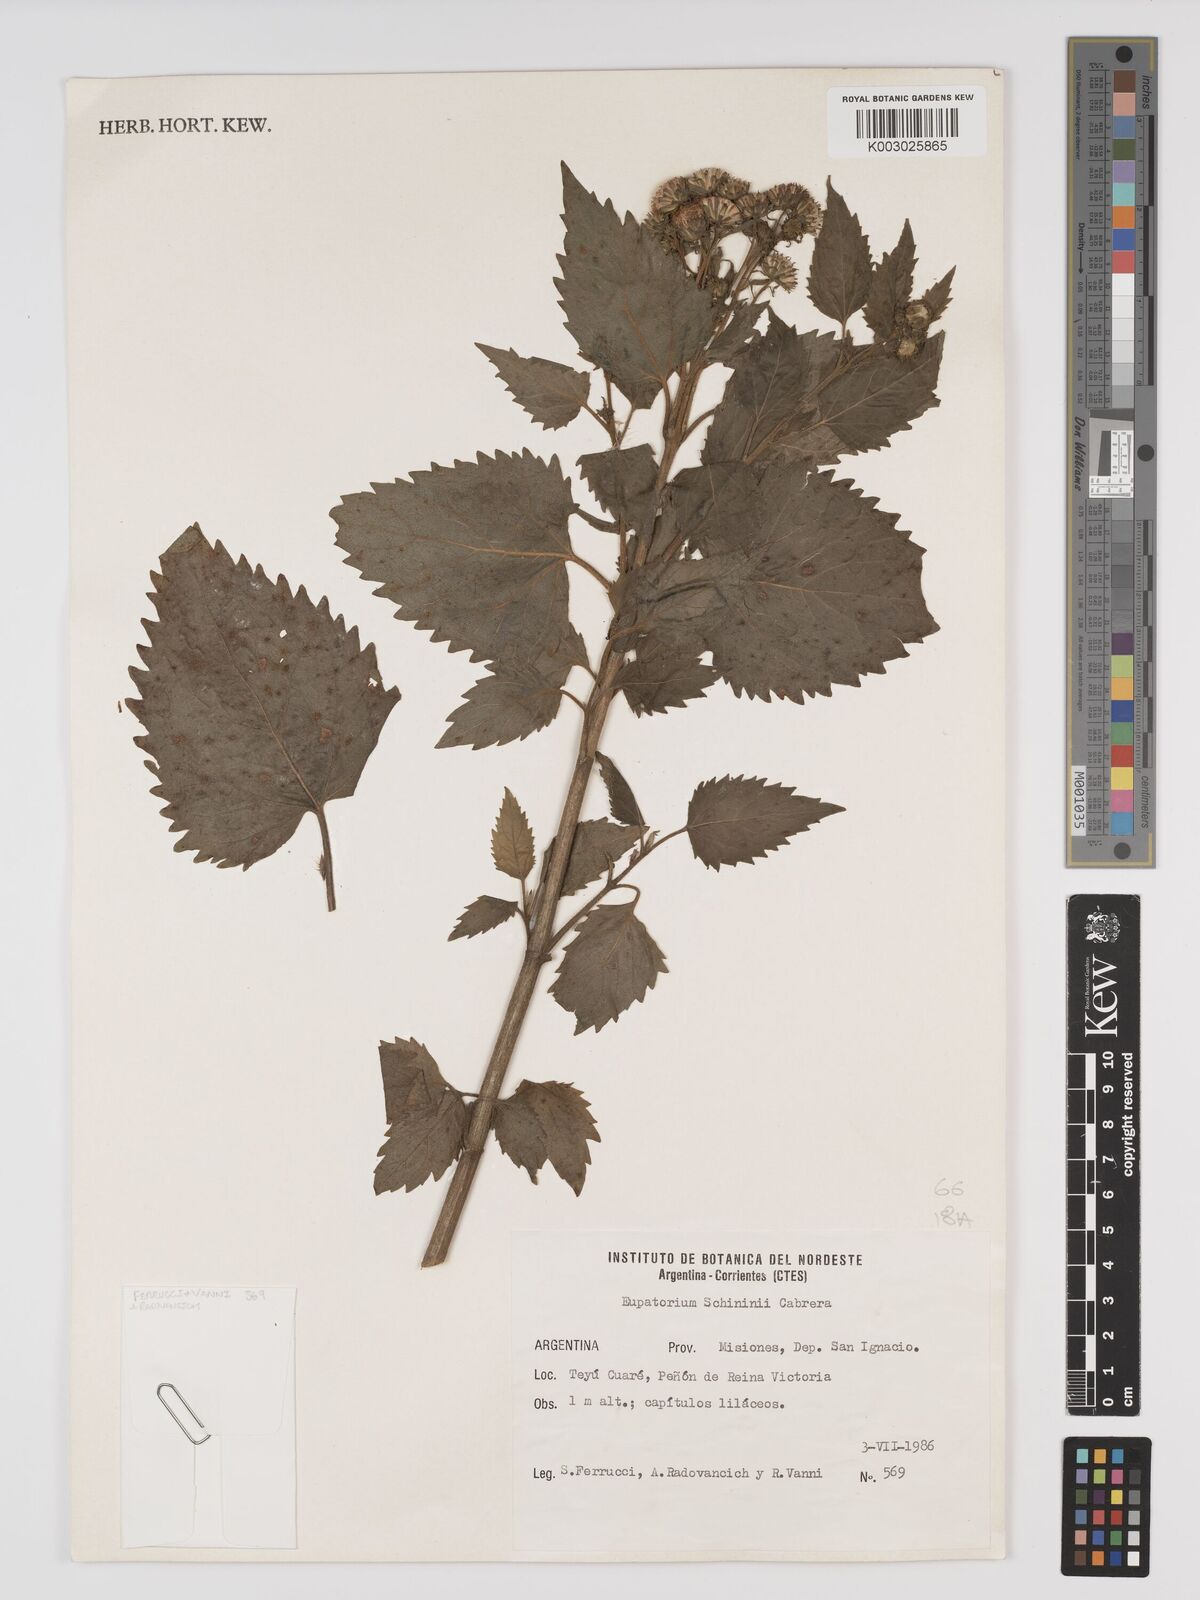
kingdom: Plantae
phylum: Tracheophyta
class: Magnoliopsida
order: Asterales
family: Asteraceae
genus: Ayapanopsis
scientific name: Ayapanopsis esperanzae
